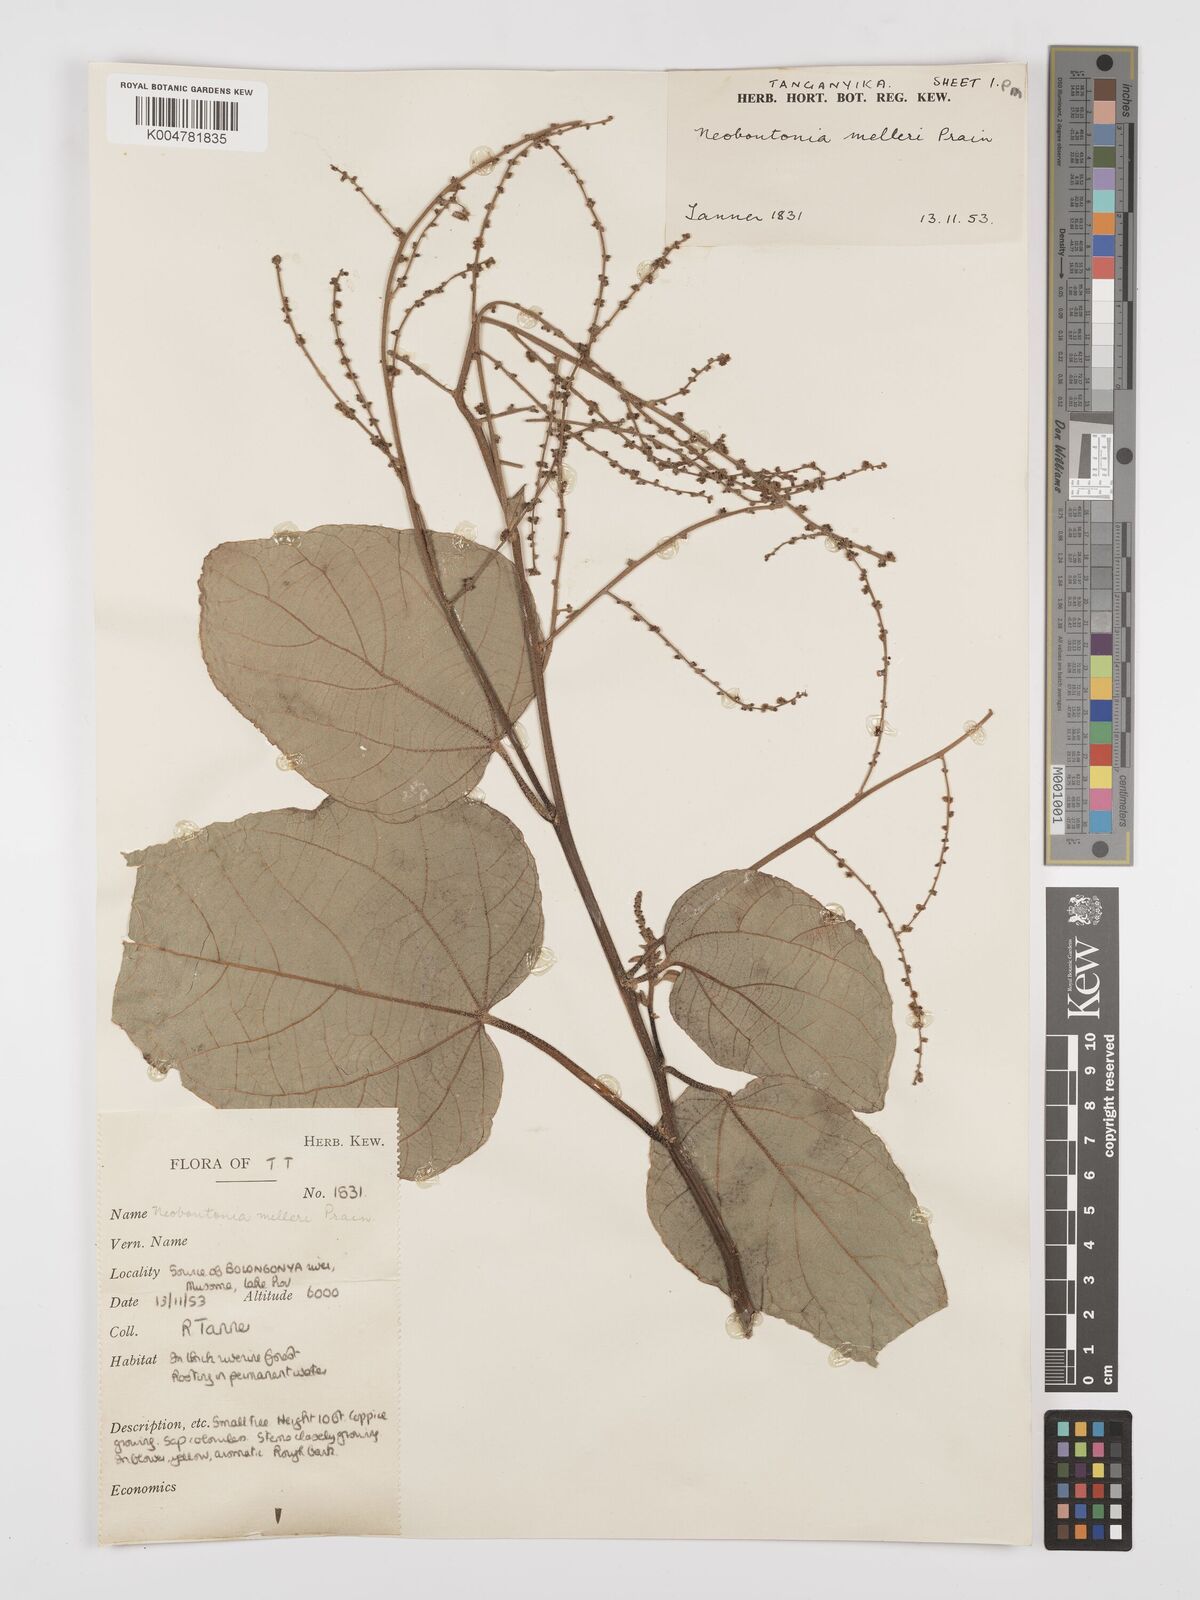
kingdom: Plantae
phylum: Tracheophyta
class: Magnoliopsida
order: Malpighiales
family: Euphorbiaceae
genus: Neoboutonia
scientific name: Neoboutonia melleri
